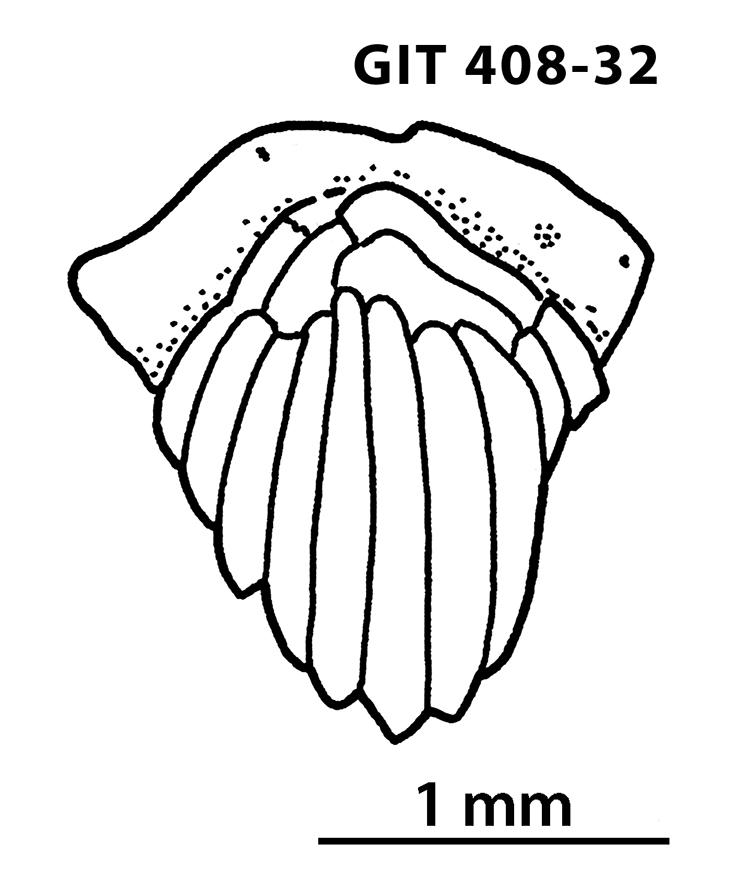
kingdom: Animalia
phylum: Chordata
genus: Archegonaspis
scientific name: Archegonaspis
